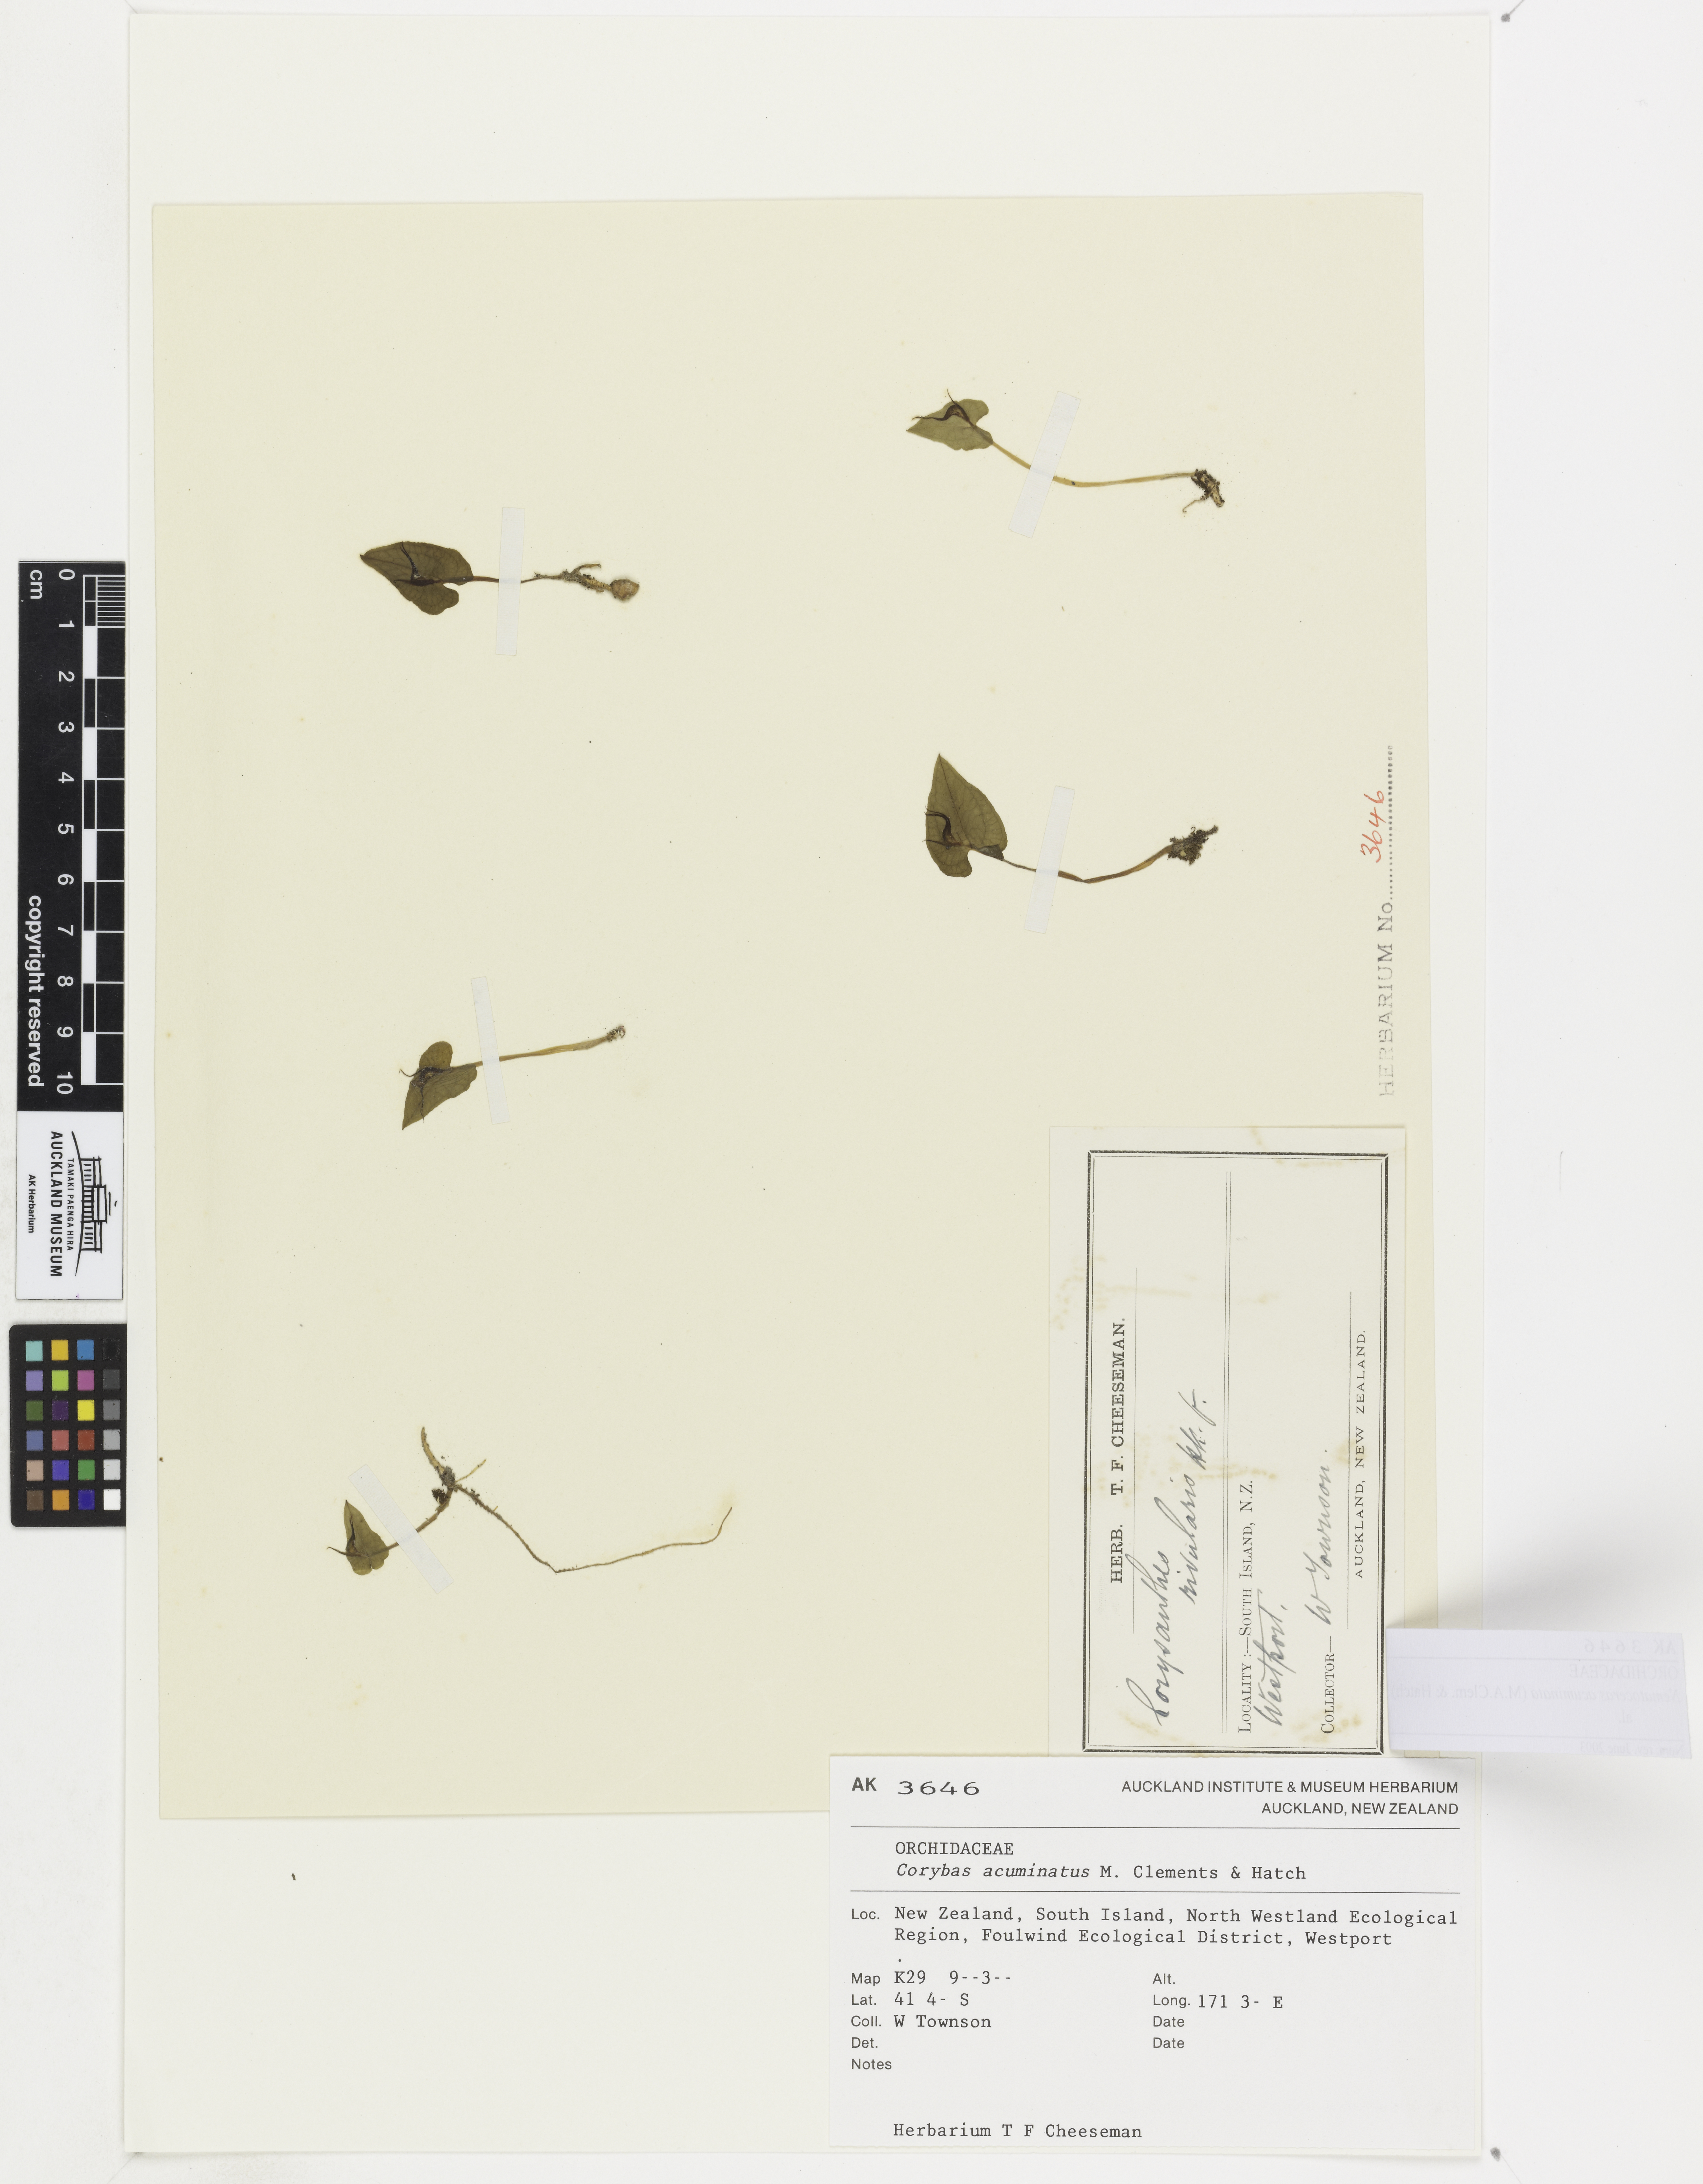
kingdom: Plantae
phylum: Tracheophyta
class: Liliopsida
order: Asparagales
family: Orchidaceae
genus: Corybas
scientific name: Corybas acuminatus
